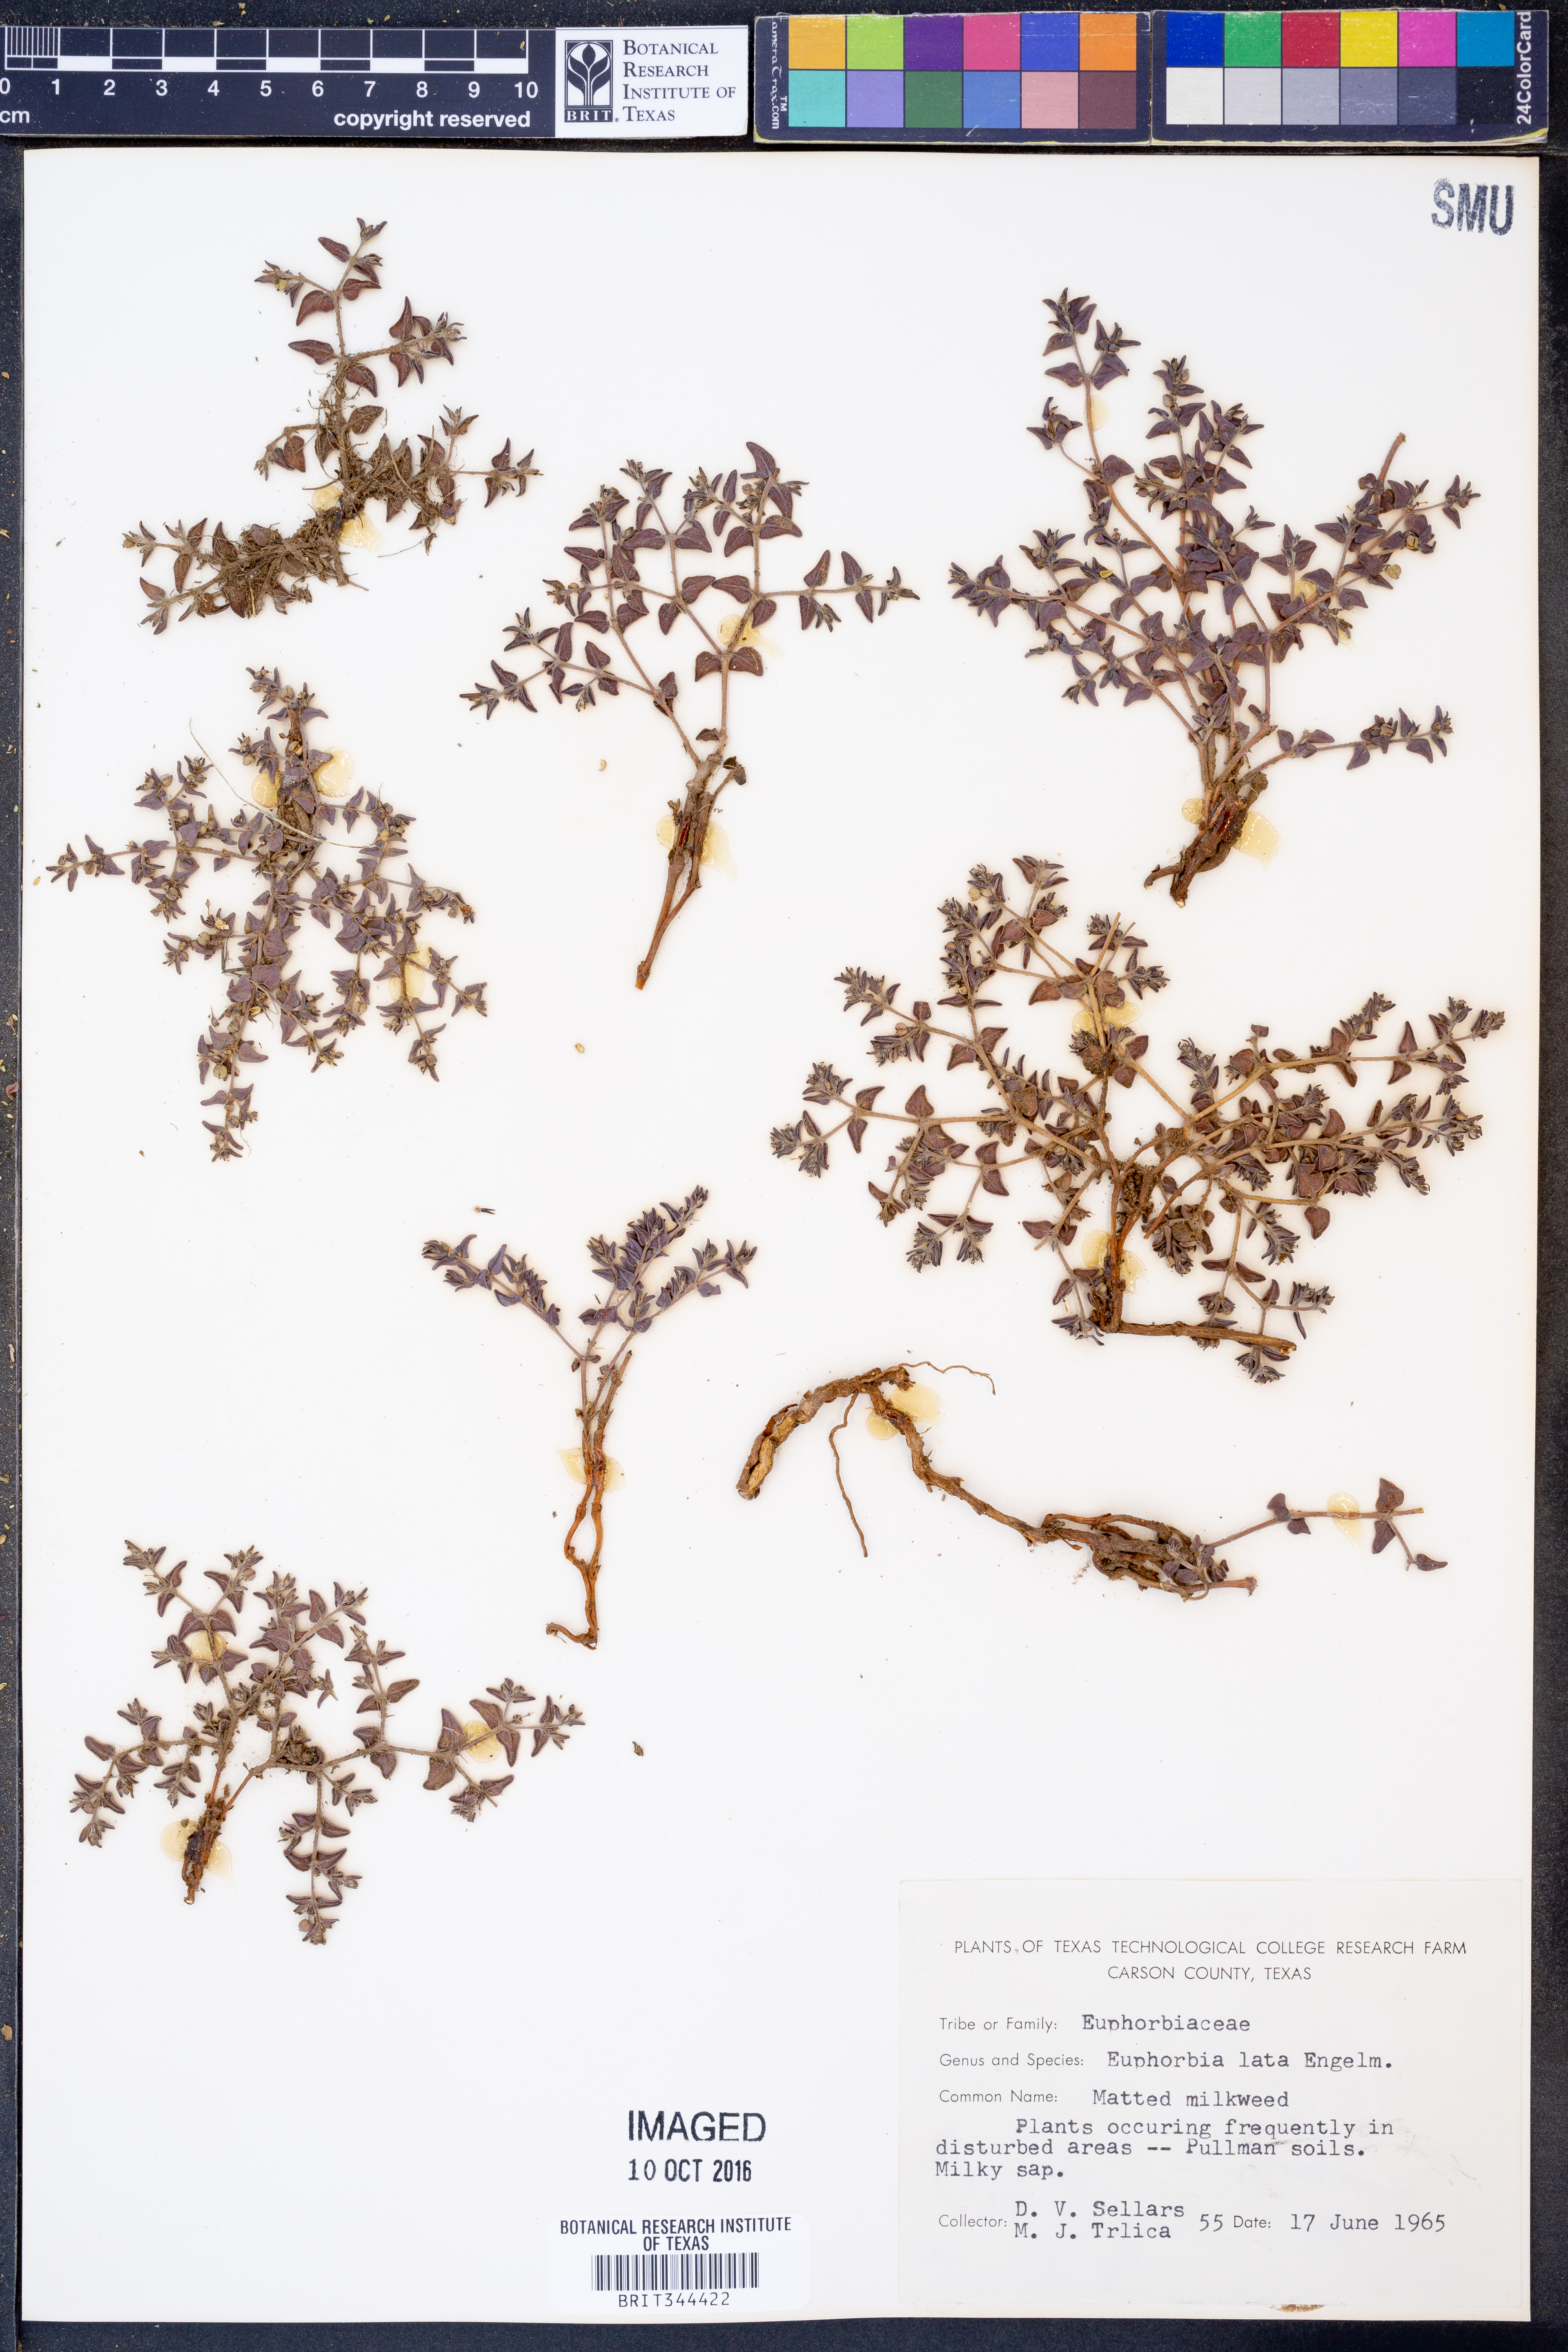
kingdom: Plantae
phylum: Tracheophyta
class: Magnoliopsida
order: Malpighiales
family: Euphorbiaceae
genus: Euphorbia
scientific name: Euphorbia lata
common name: Hoary euphorbia
